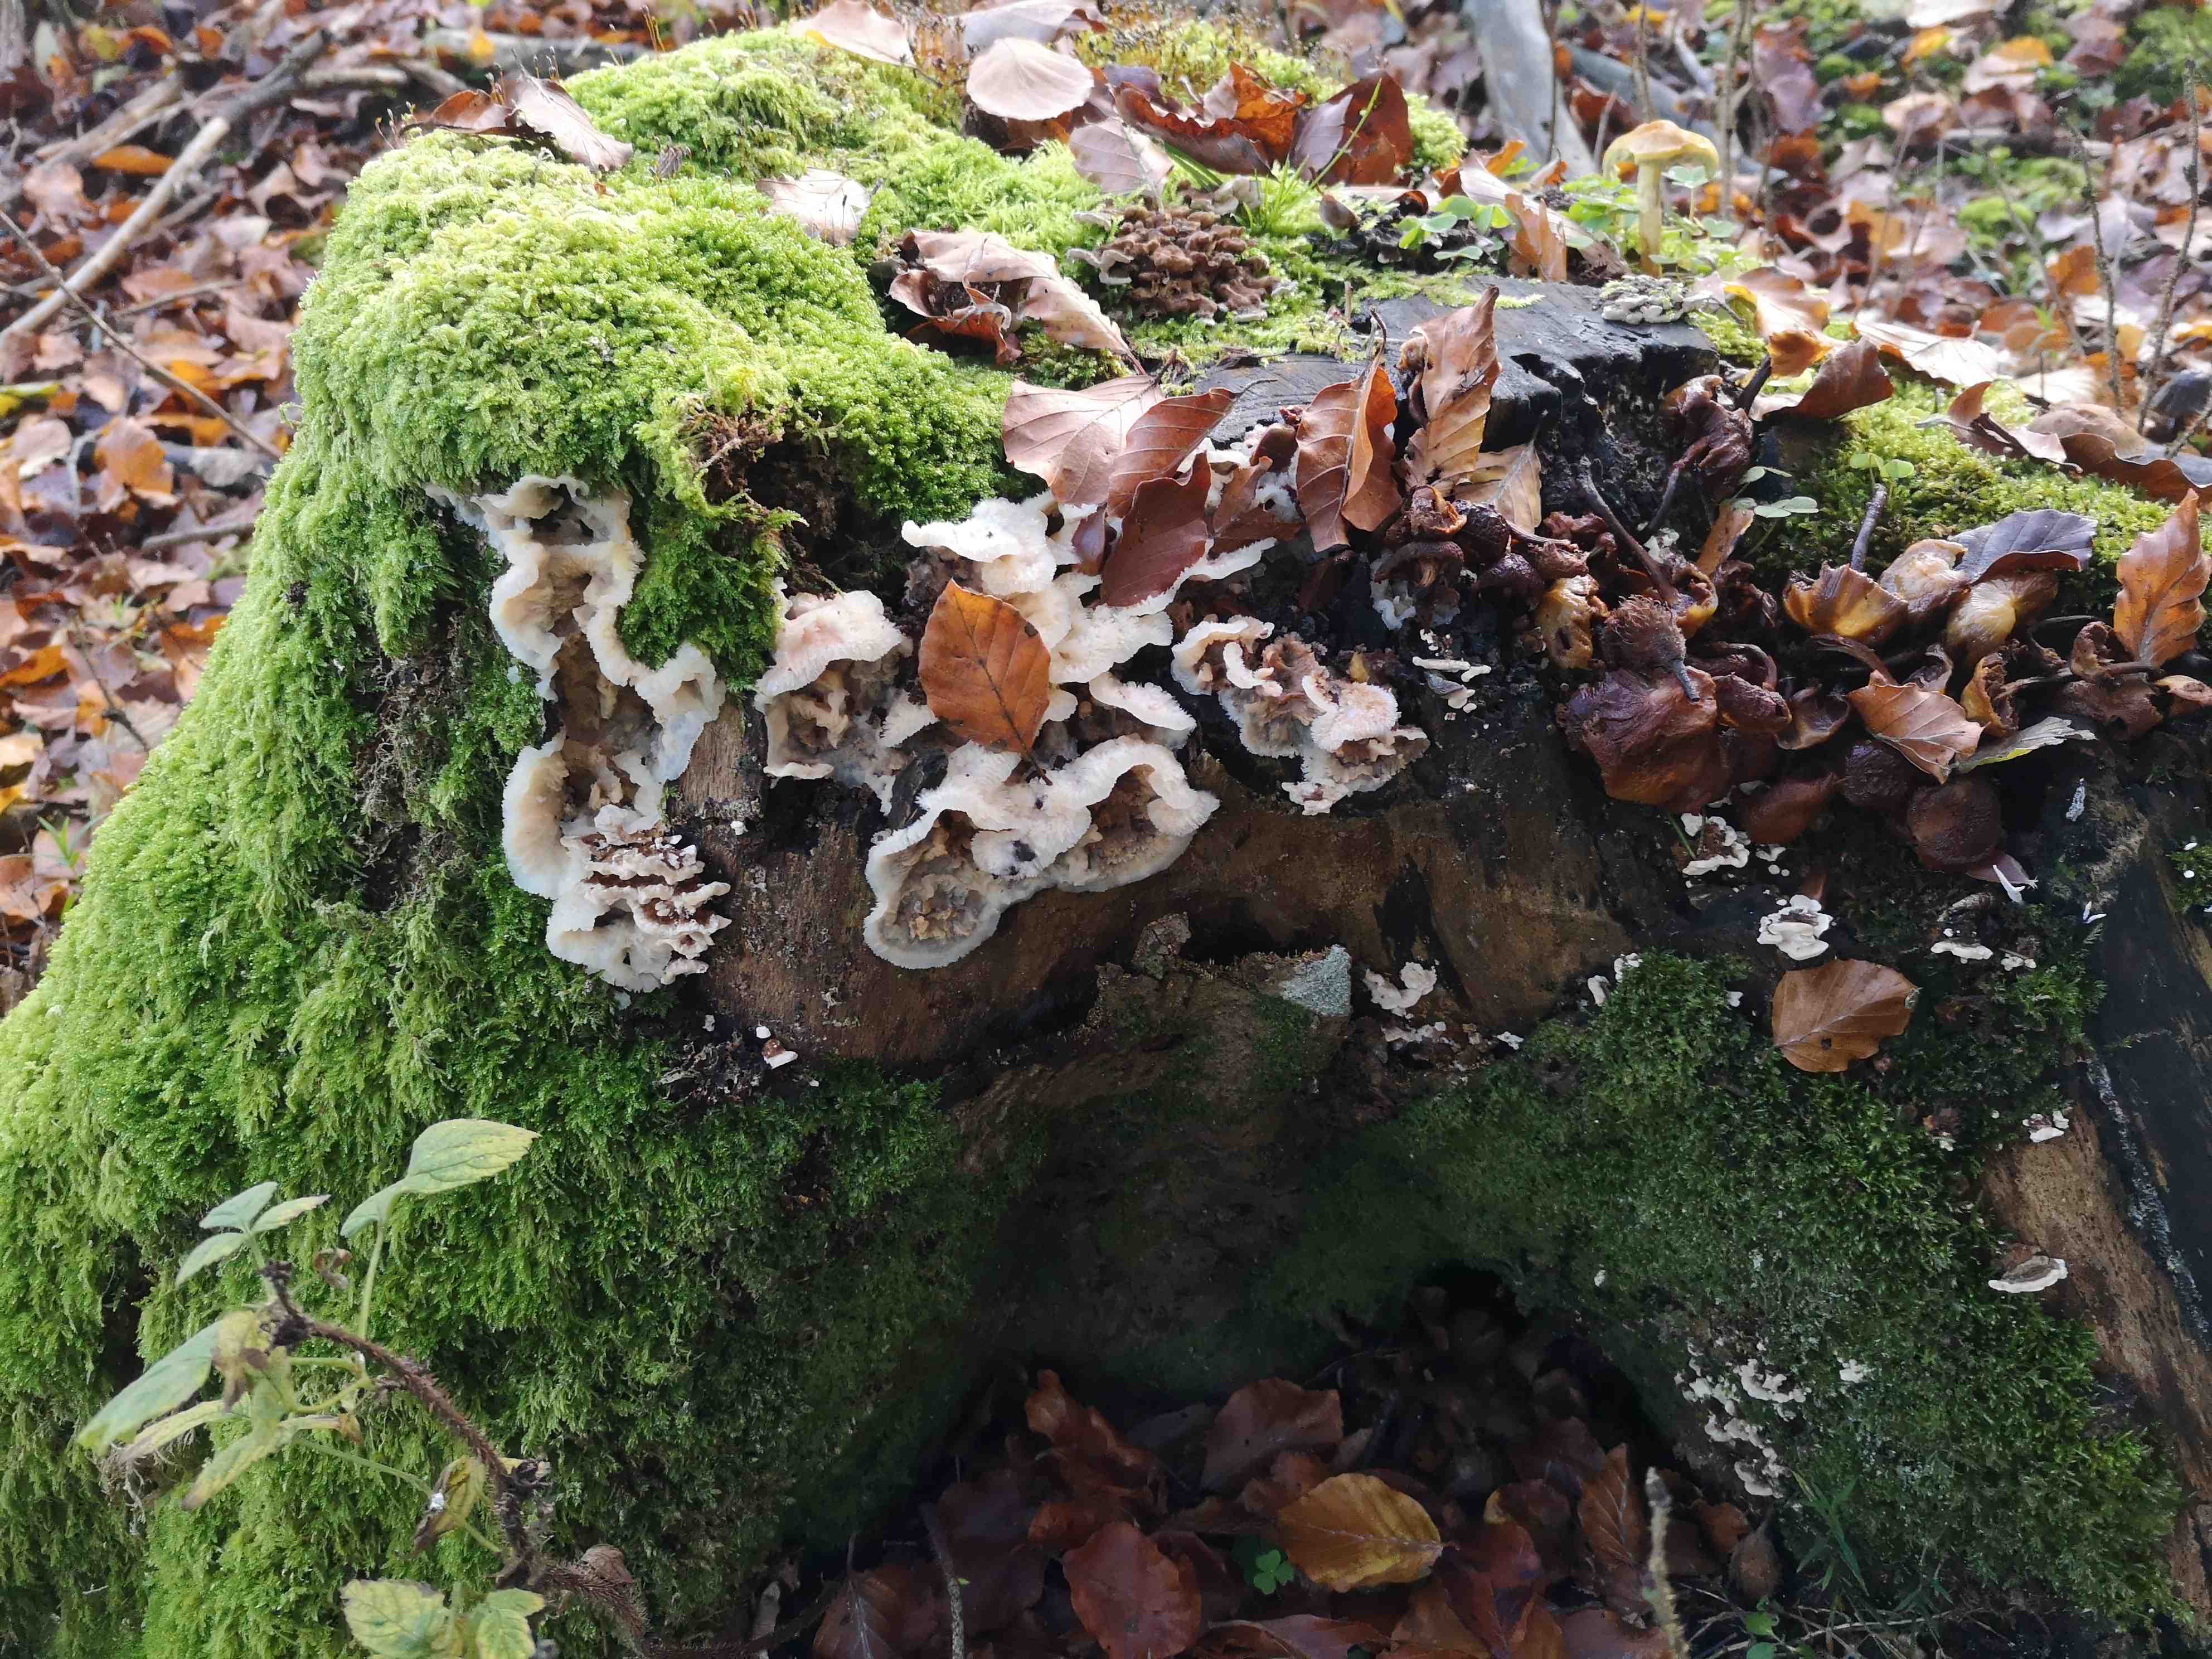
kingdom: Fungi
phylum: Basidiomycota
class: Agaricomycetes
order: Polyporales
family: Meruliaceae
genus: Phlebia
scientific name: Phlebia tremellosa
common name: bævrende åresvamp
